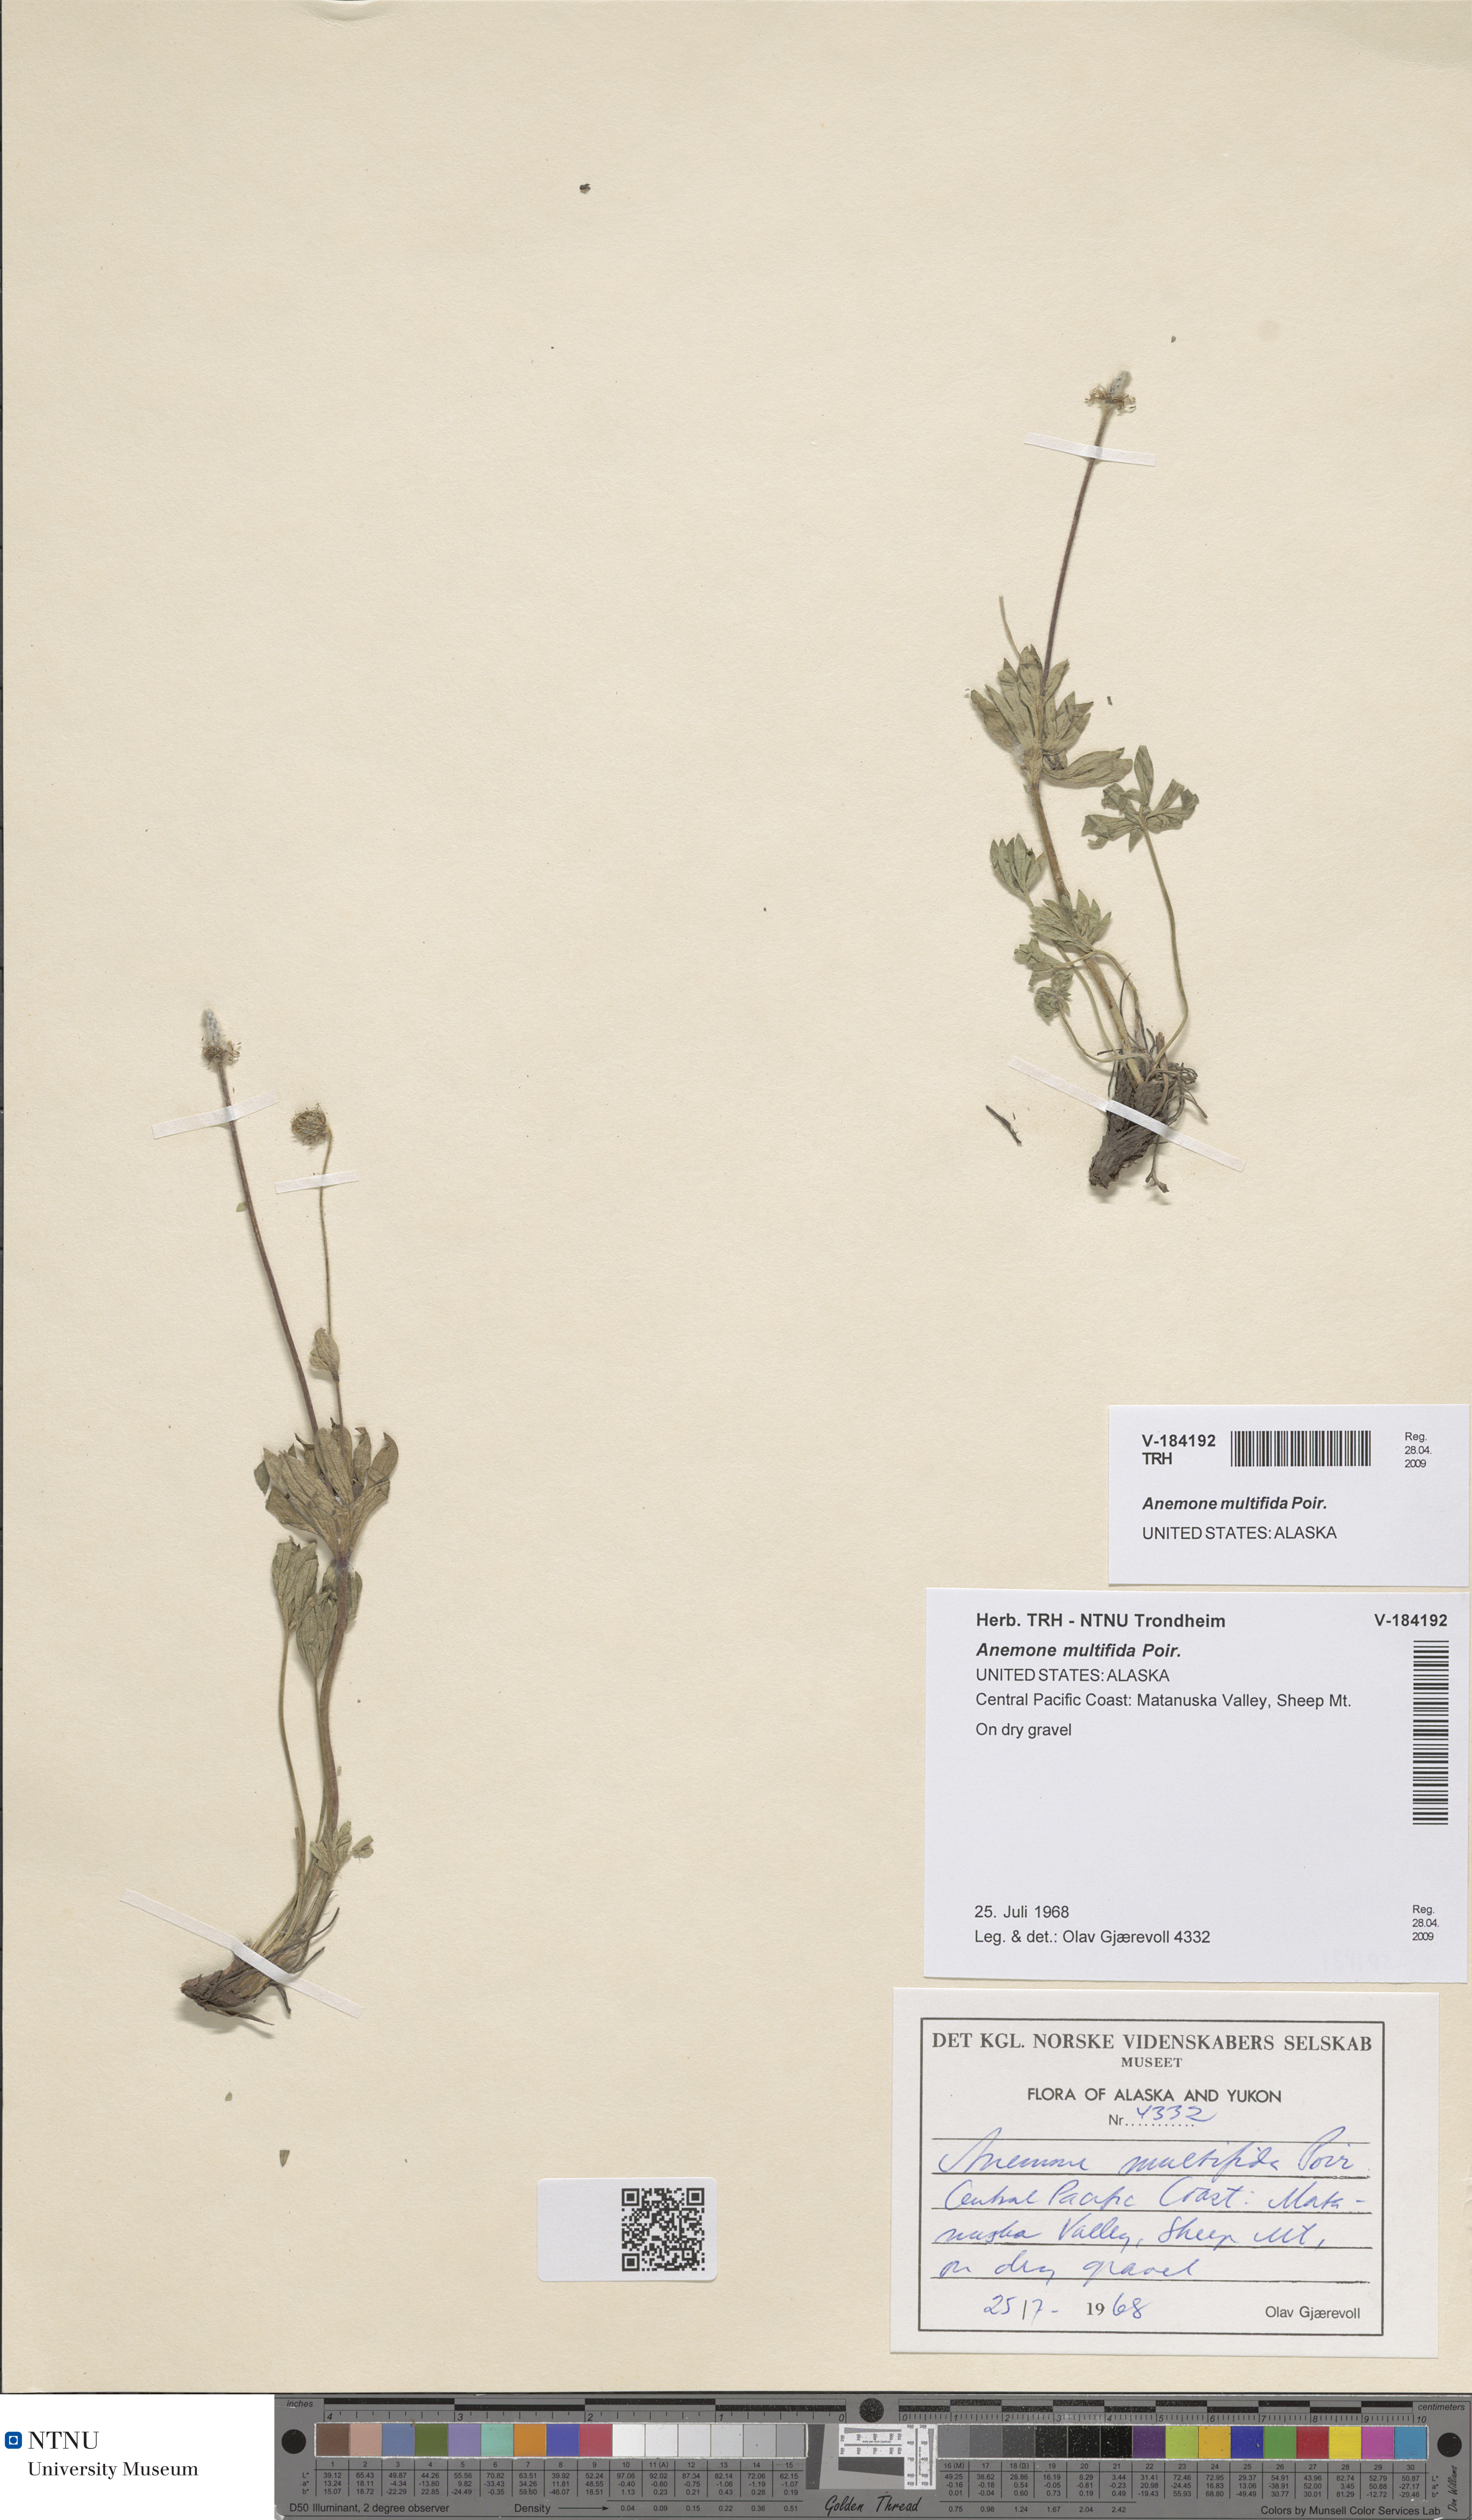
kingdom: Plantae
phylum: Tracheophyta
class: Magnoliopsida
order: Ranunculales
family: Ranunculaceae
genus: Anemone
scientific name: Anemone multifida
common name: Bird's-foot anemone
